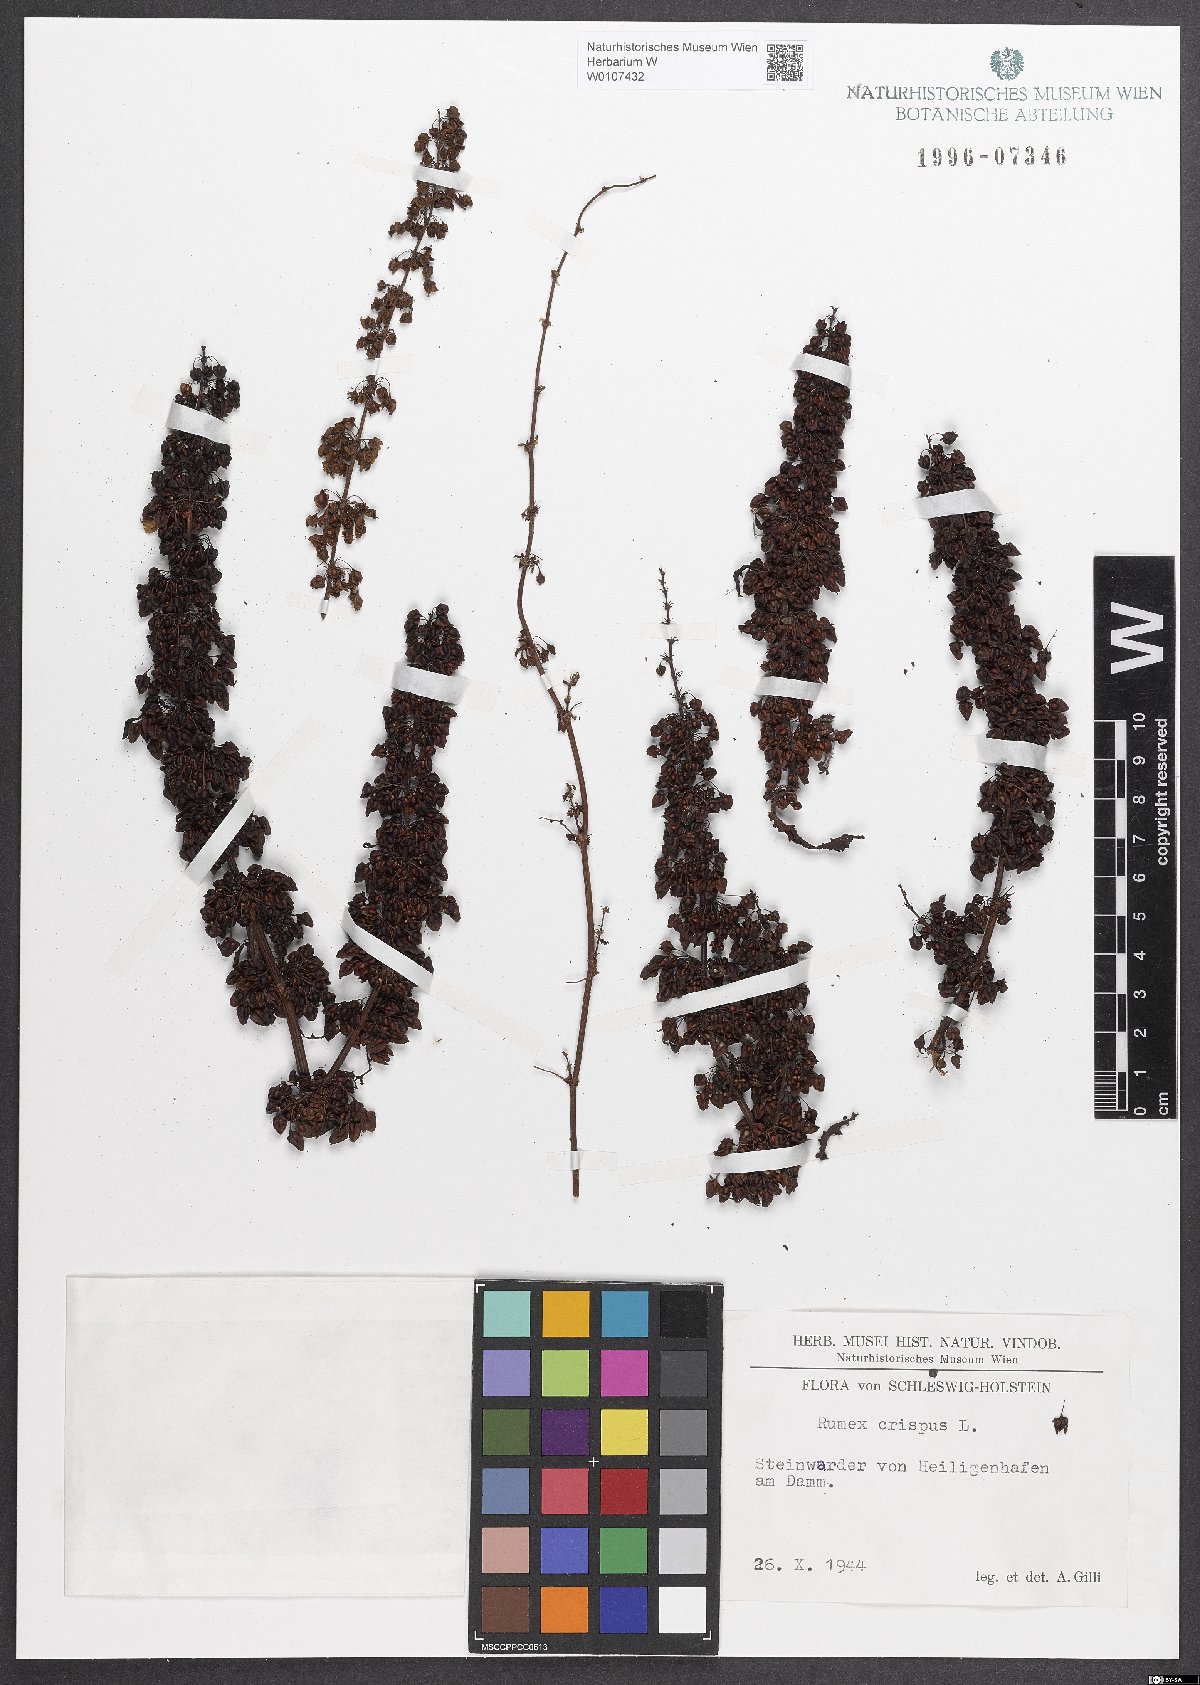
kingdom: Plantae
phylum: Tracheophyta
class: Magnoliopsida
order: Caryophyllales
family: Polygonaceae
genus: Rumex
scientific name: Rumex crispus
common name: Curled dock
